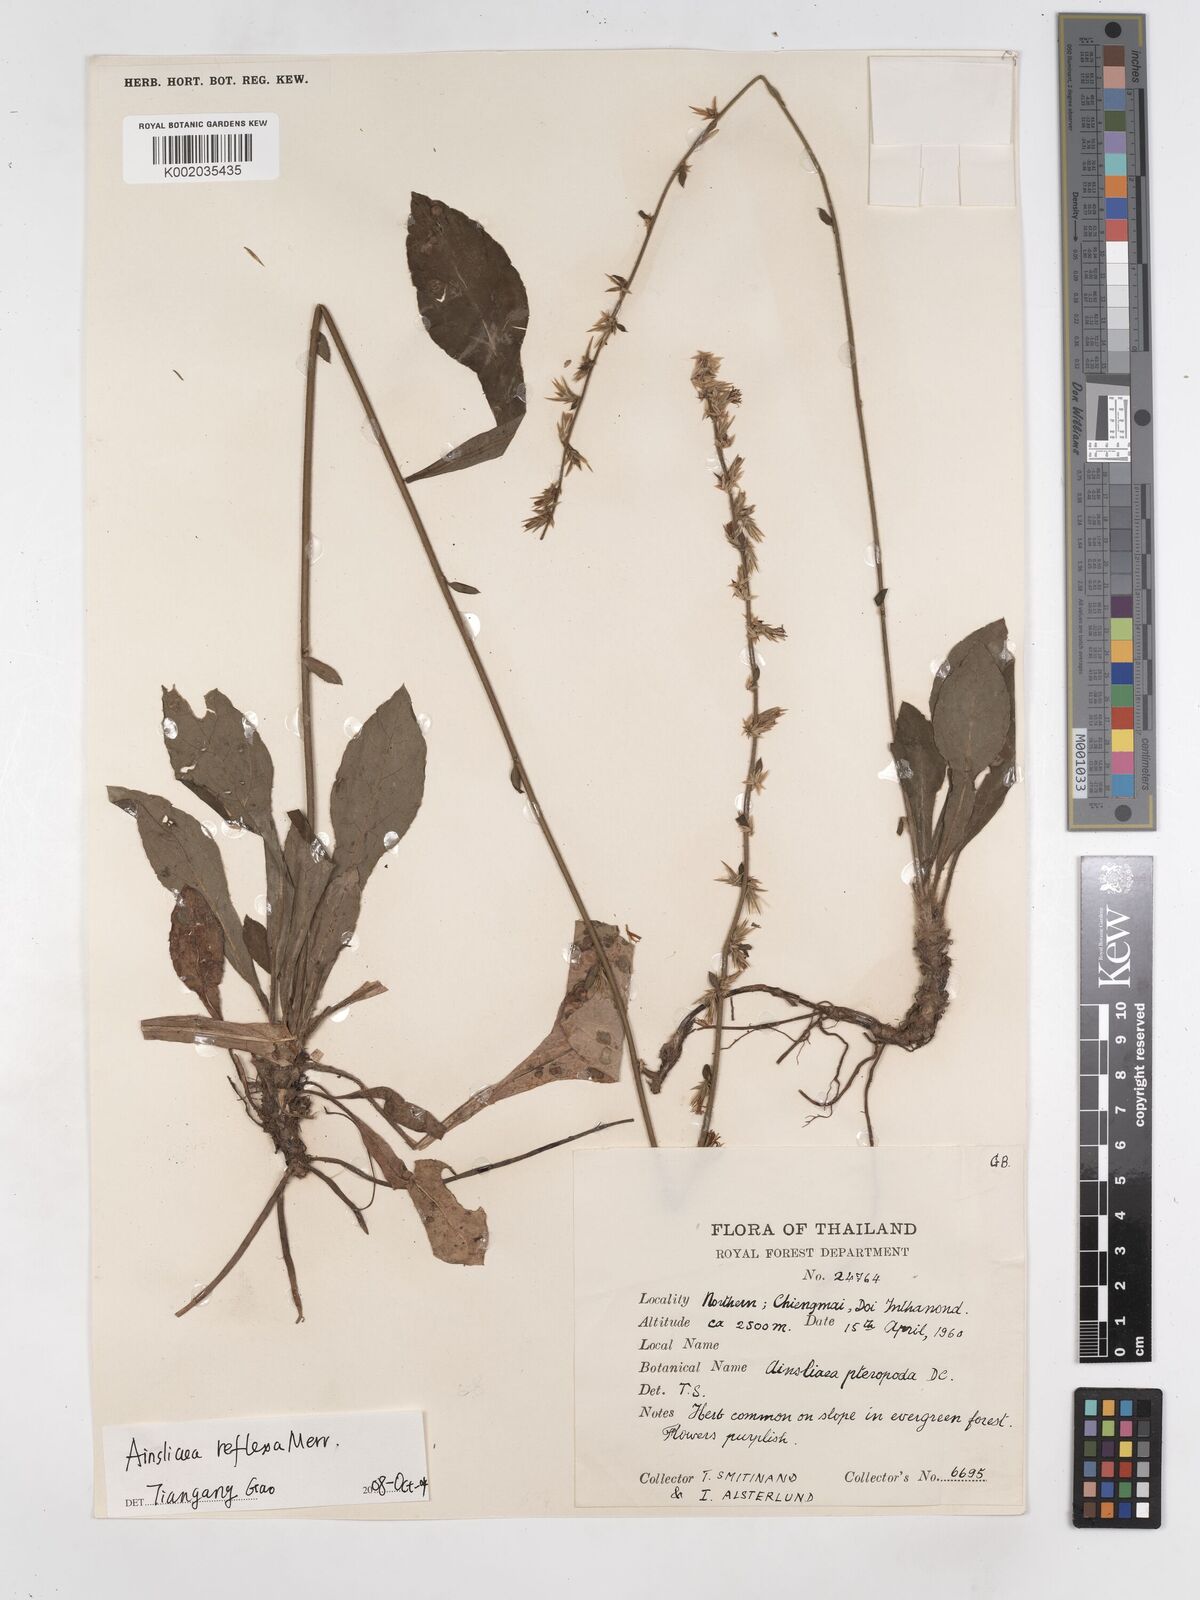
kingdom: Plantae
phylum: Tracheophyta
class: Magnoliopsida
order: Asterales
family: Asteraceae
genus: Ainsliaea
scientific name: Ainsliaea reflexa
